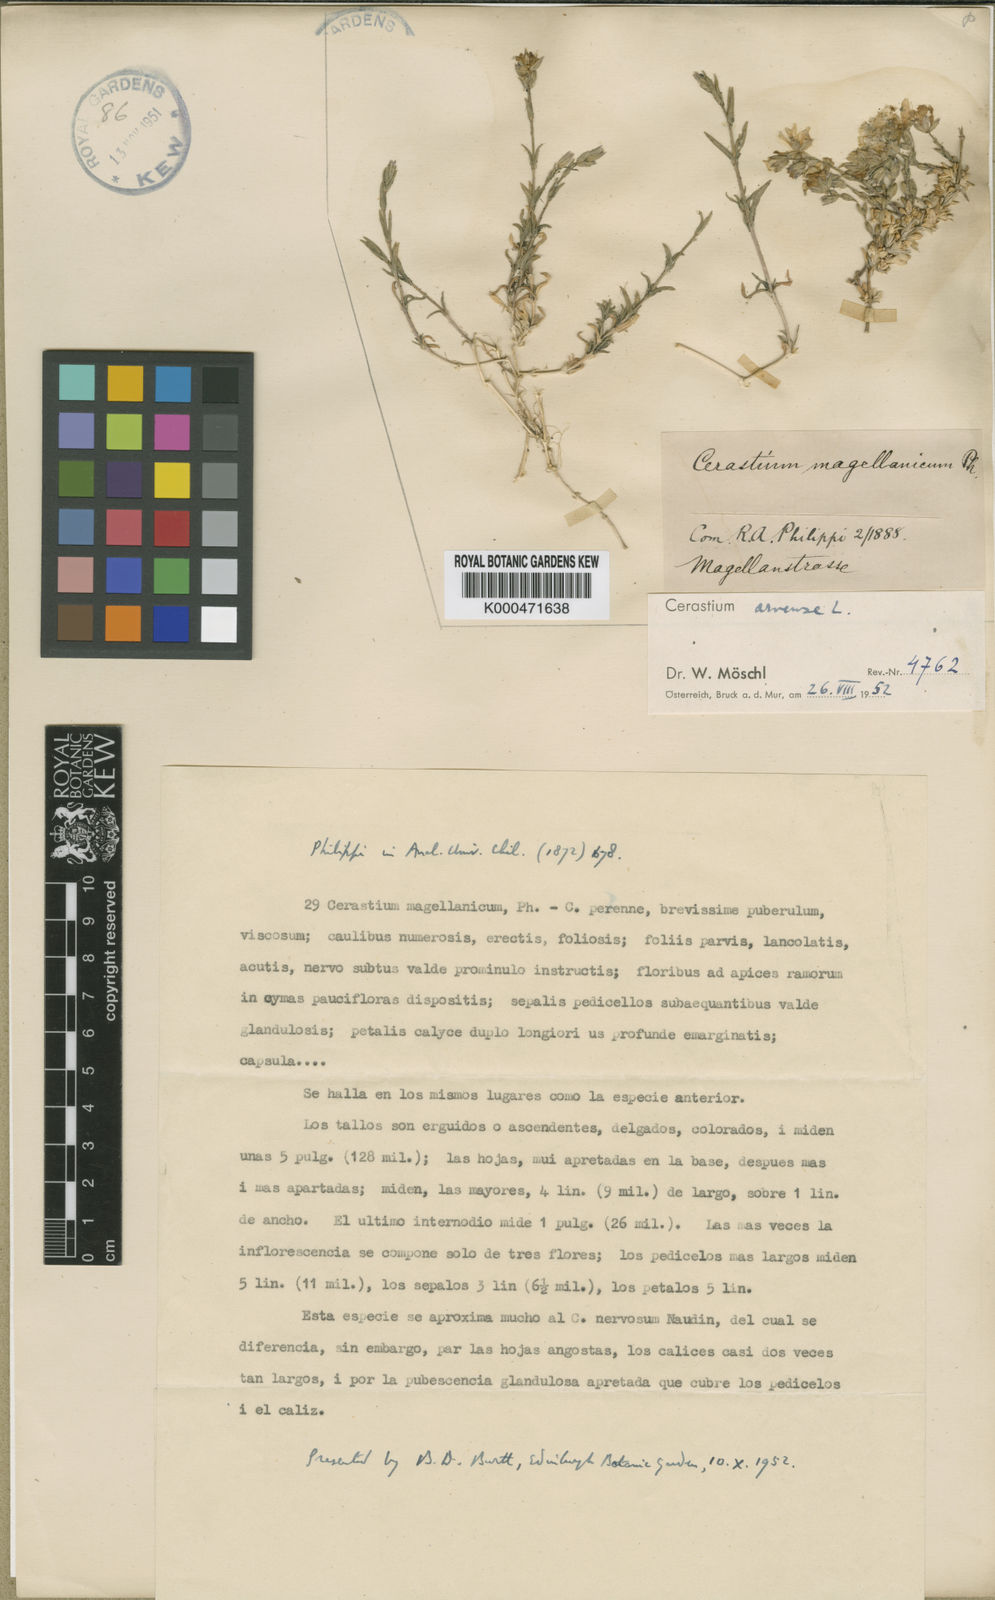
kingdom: Plantae
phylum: Tracheophyta
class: Magnoliopsida
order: Caryophyllales
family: Caryophyllaceae
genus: Cerastium
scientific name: Cerastium arvense
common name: Field mouse-ear
